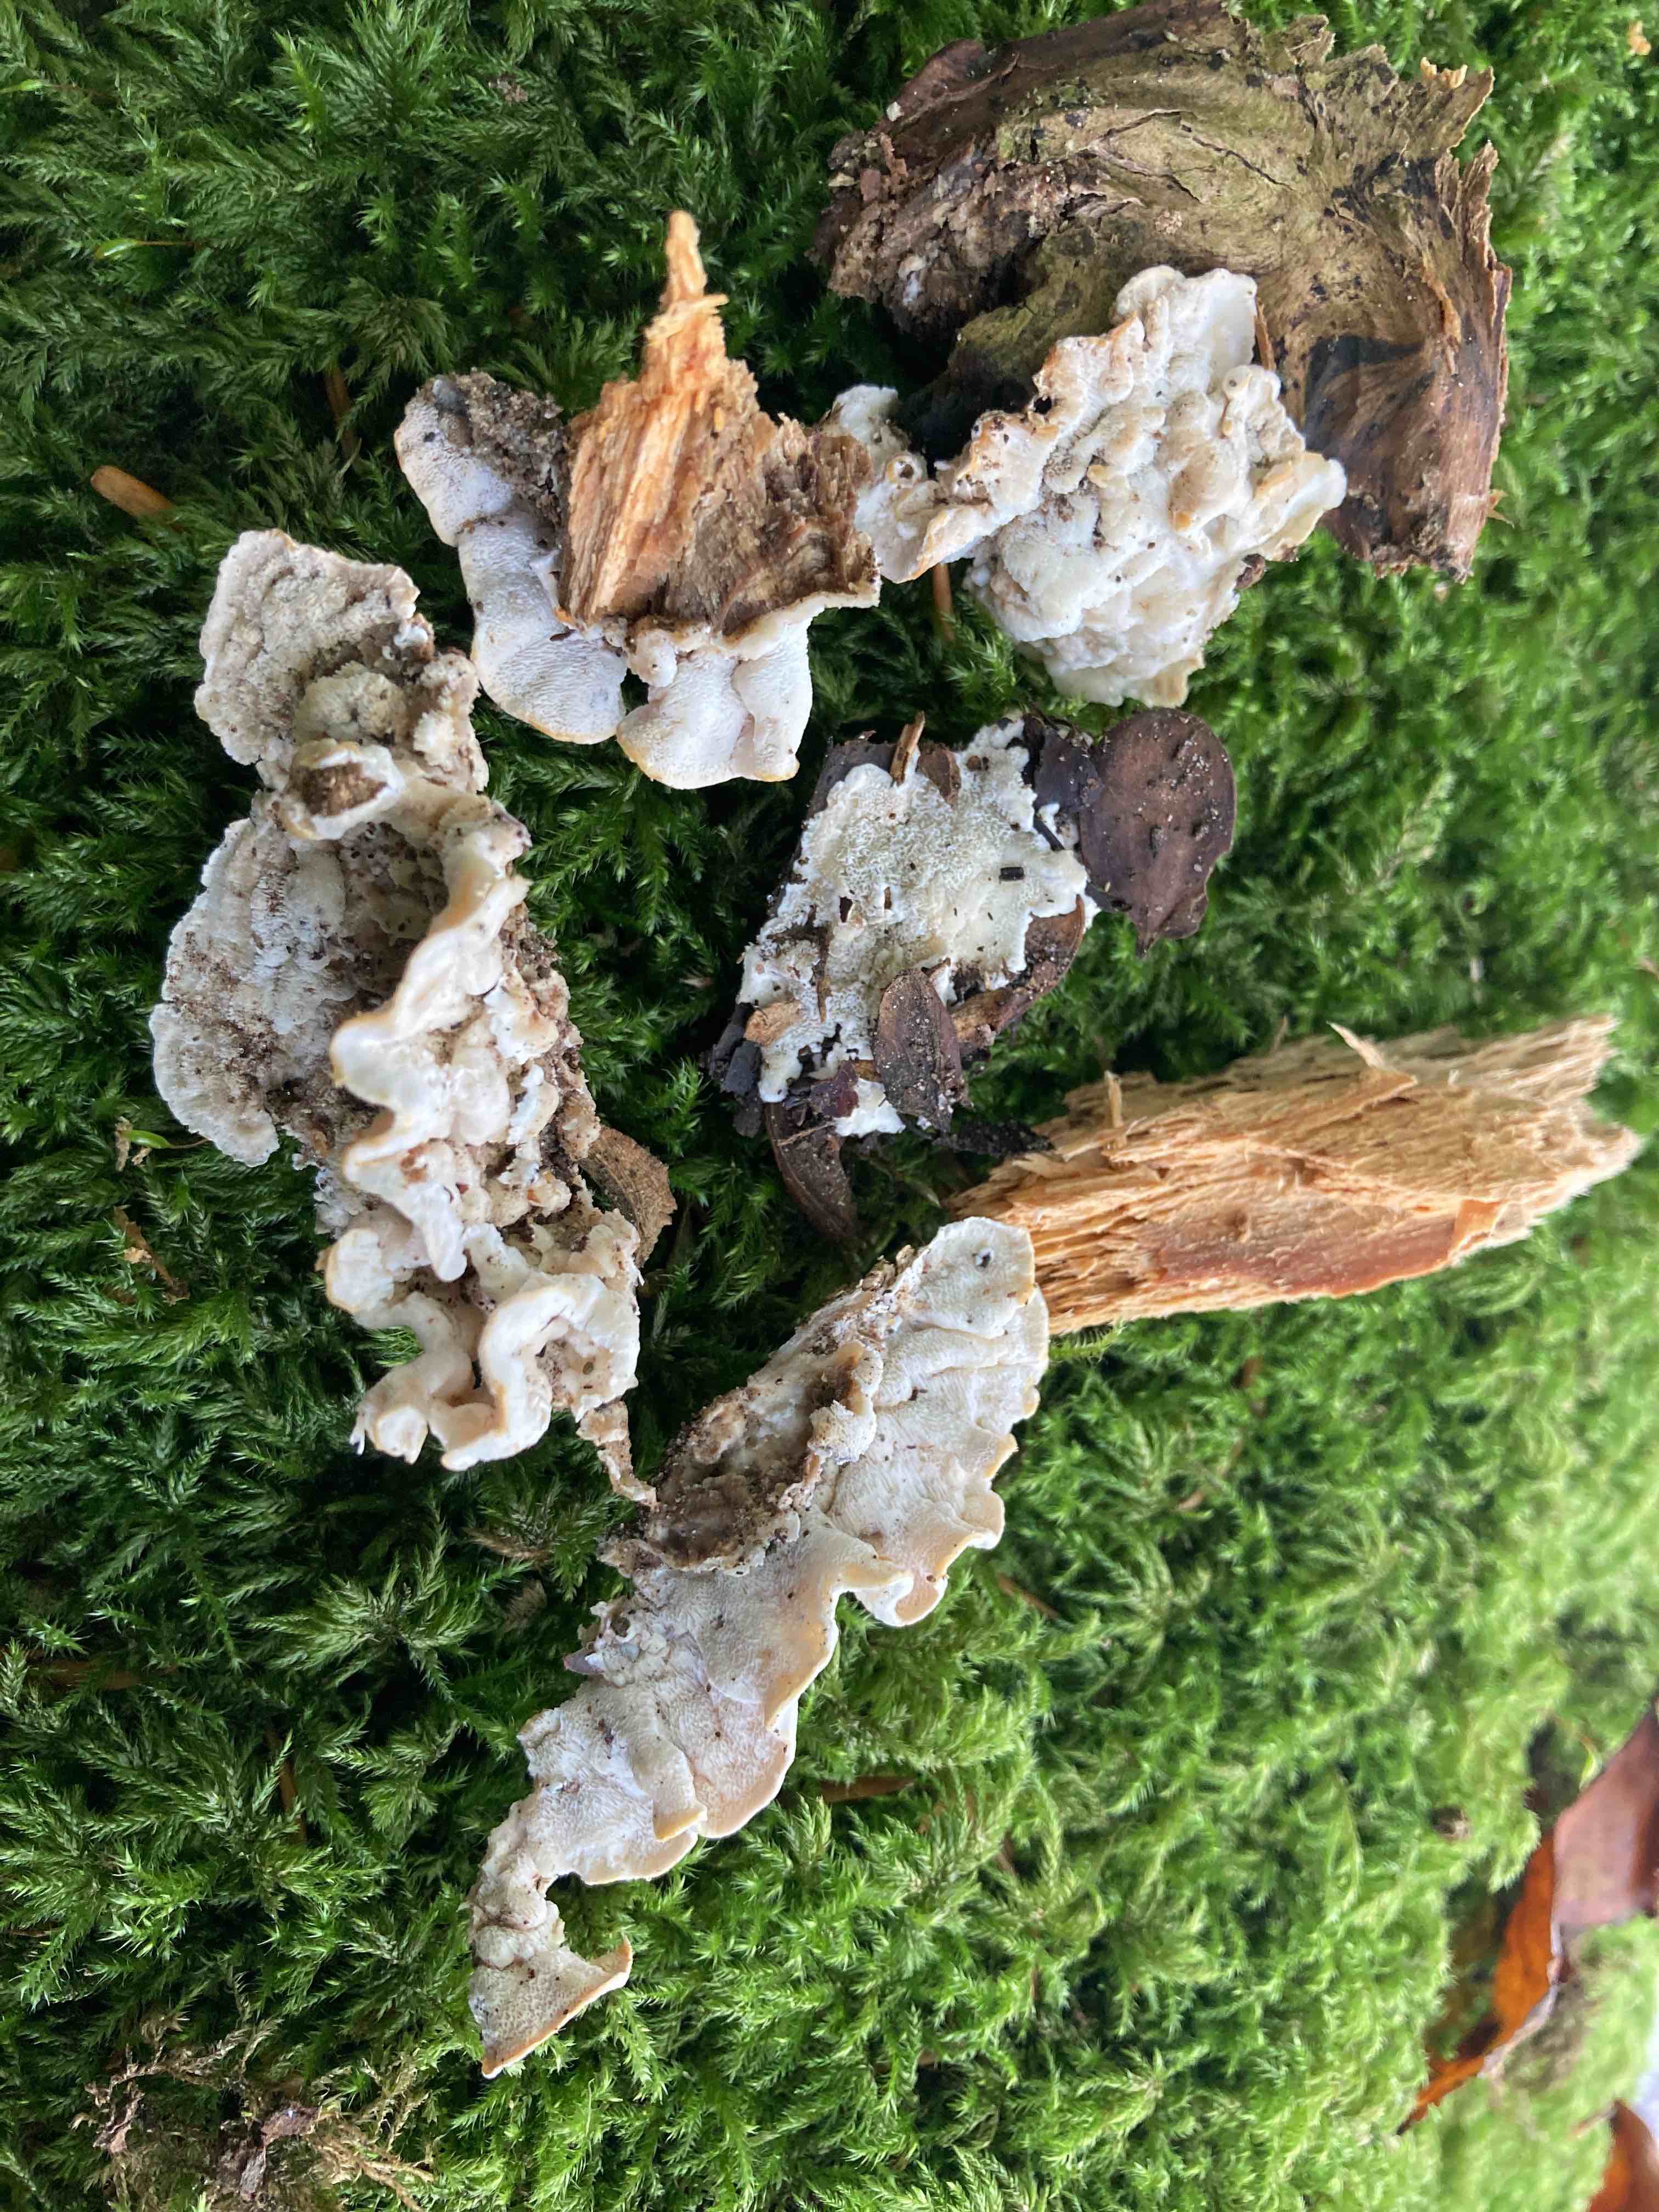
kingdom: Fungi
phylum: Basidiomycota
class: Agaricomycetes
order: Polyporales
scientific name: Polyporales
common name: poresvampordenen
